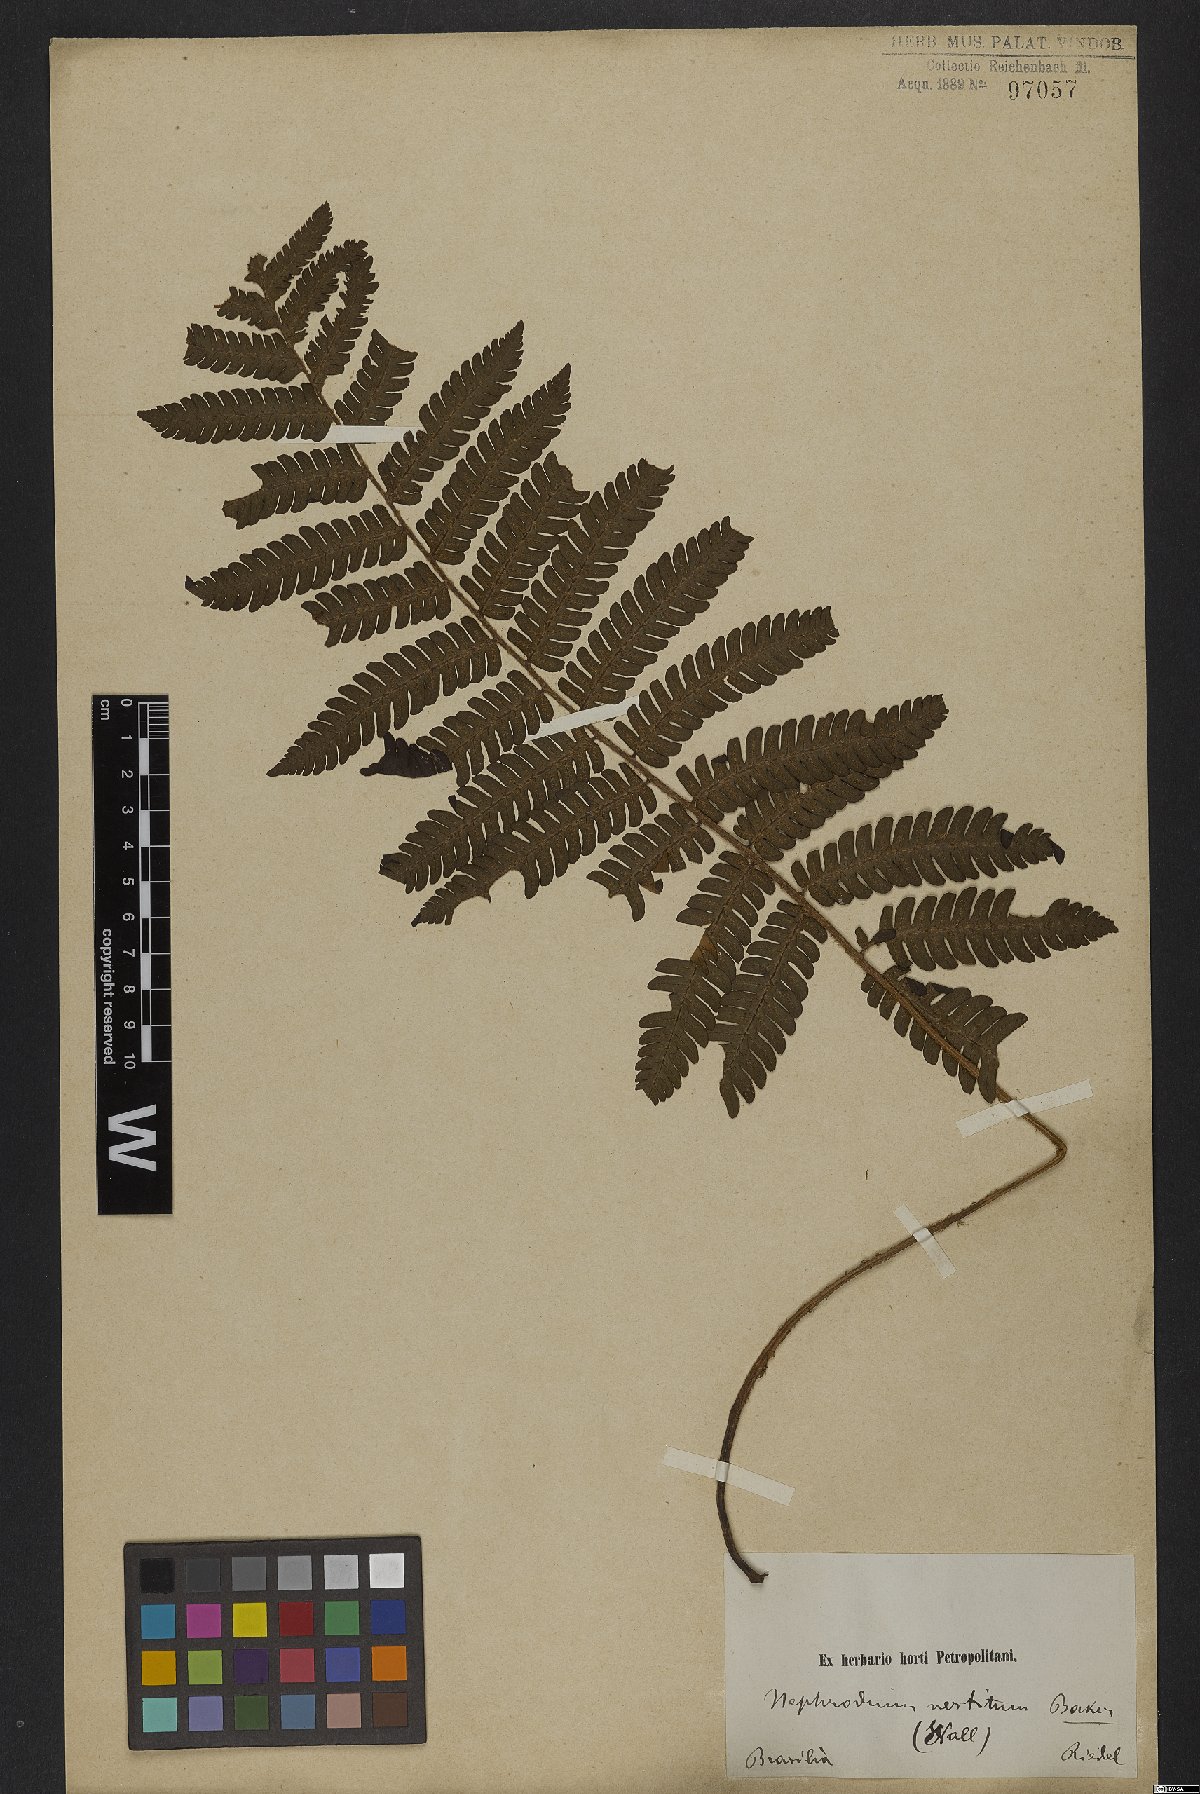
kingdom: Plantae
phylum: Tracheophyta
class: Polypodiopsida
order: Polypodiales
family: Dryopteridaceae
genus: Ctenitis
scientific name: Ctenitis deflexa
